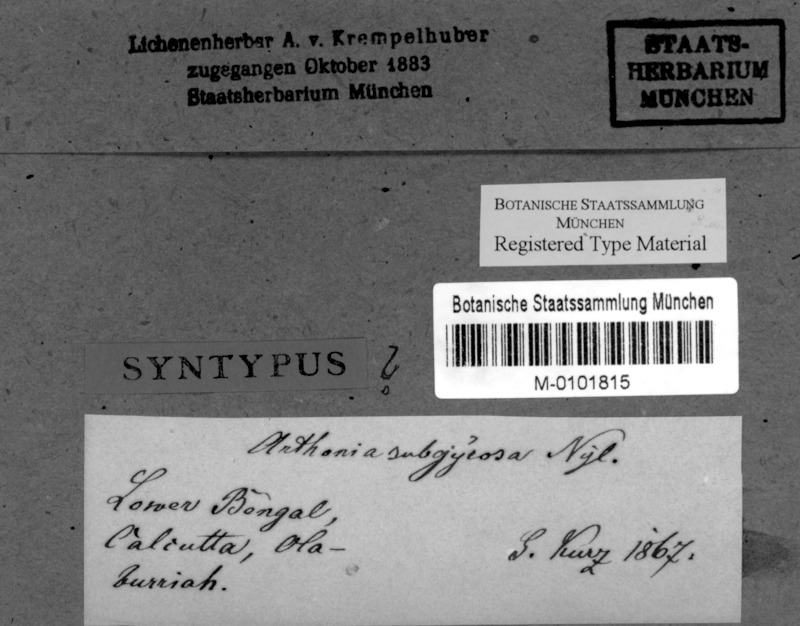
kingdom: Fungi
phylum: Ascomycota
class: Arthoniomycetes
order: Arthoniales
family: Arthoniaceae
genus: Arthonia
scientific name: Arthonia subgyrosa
